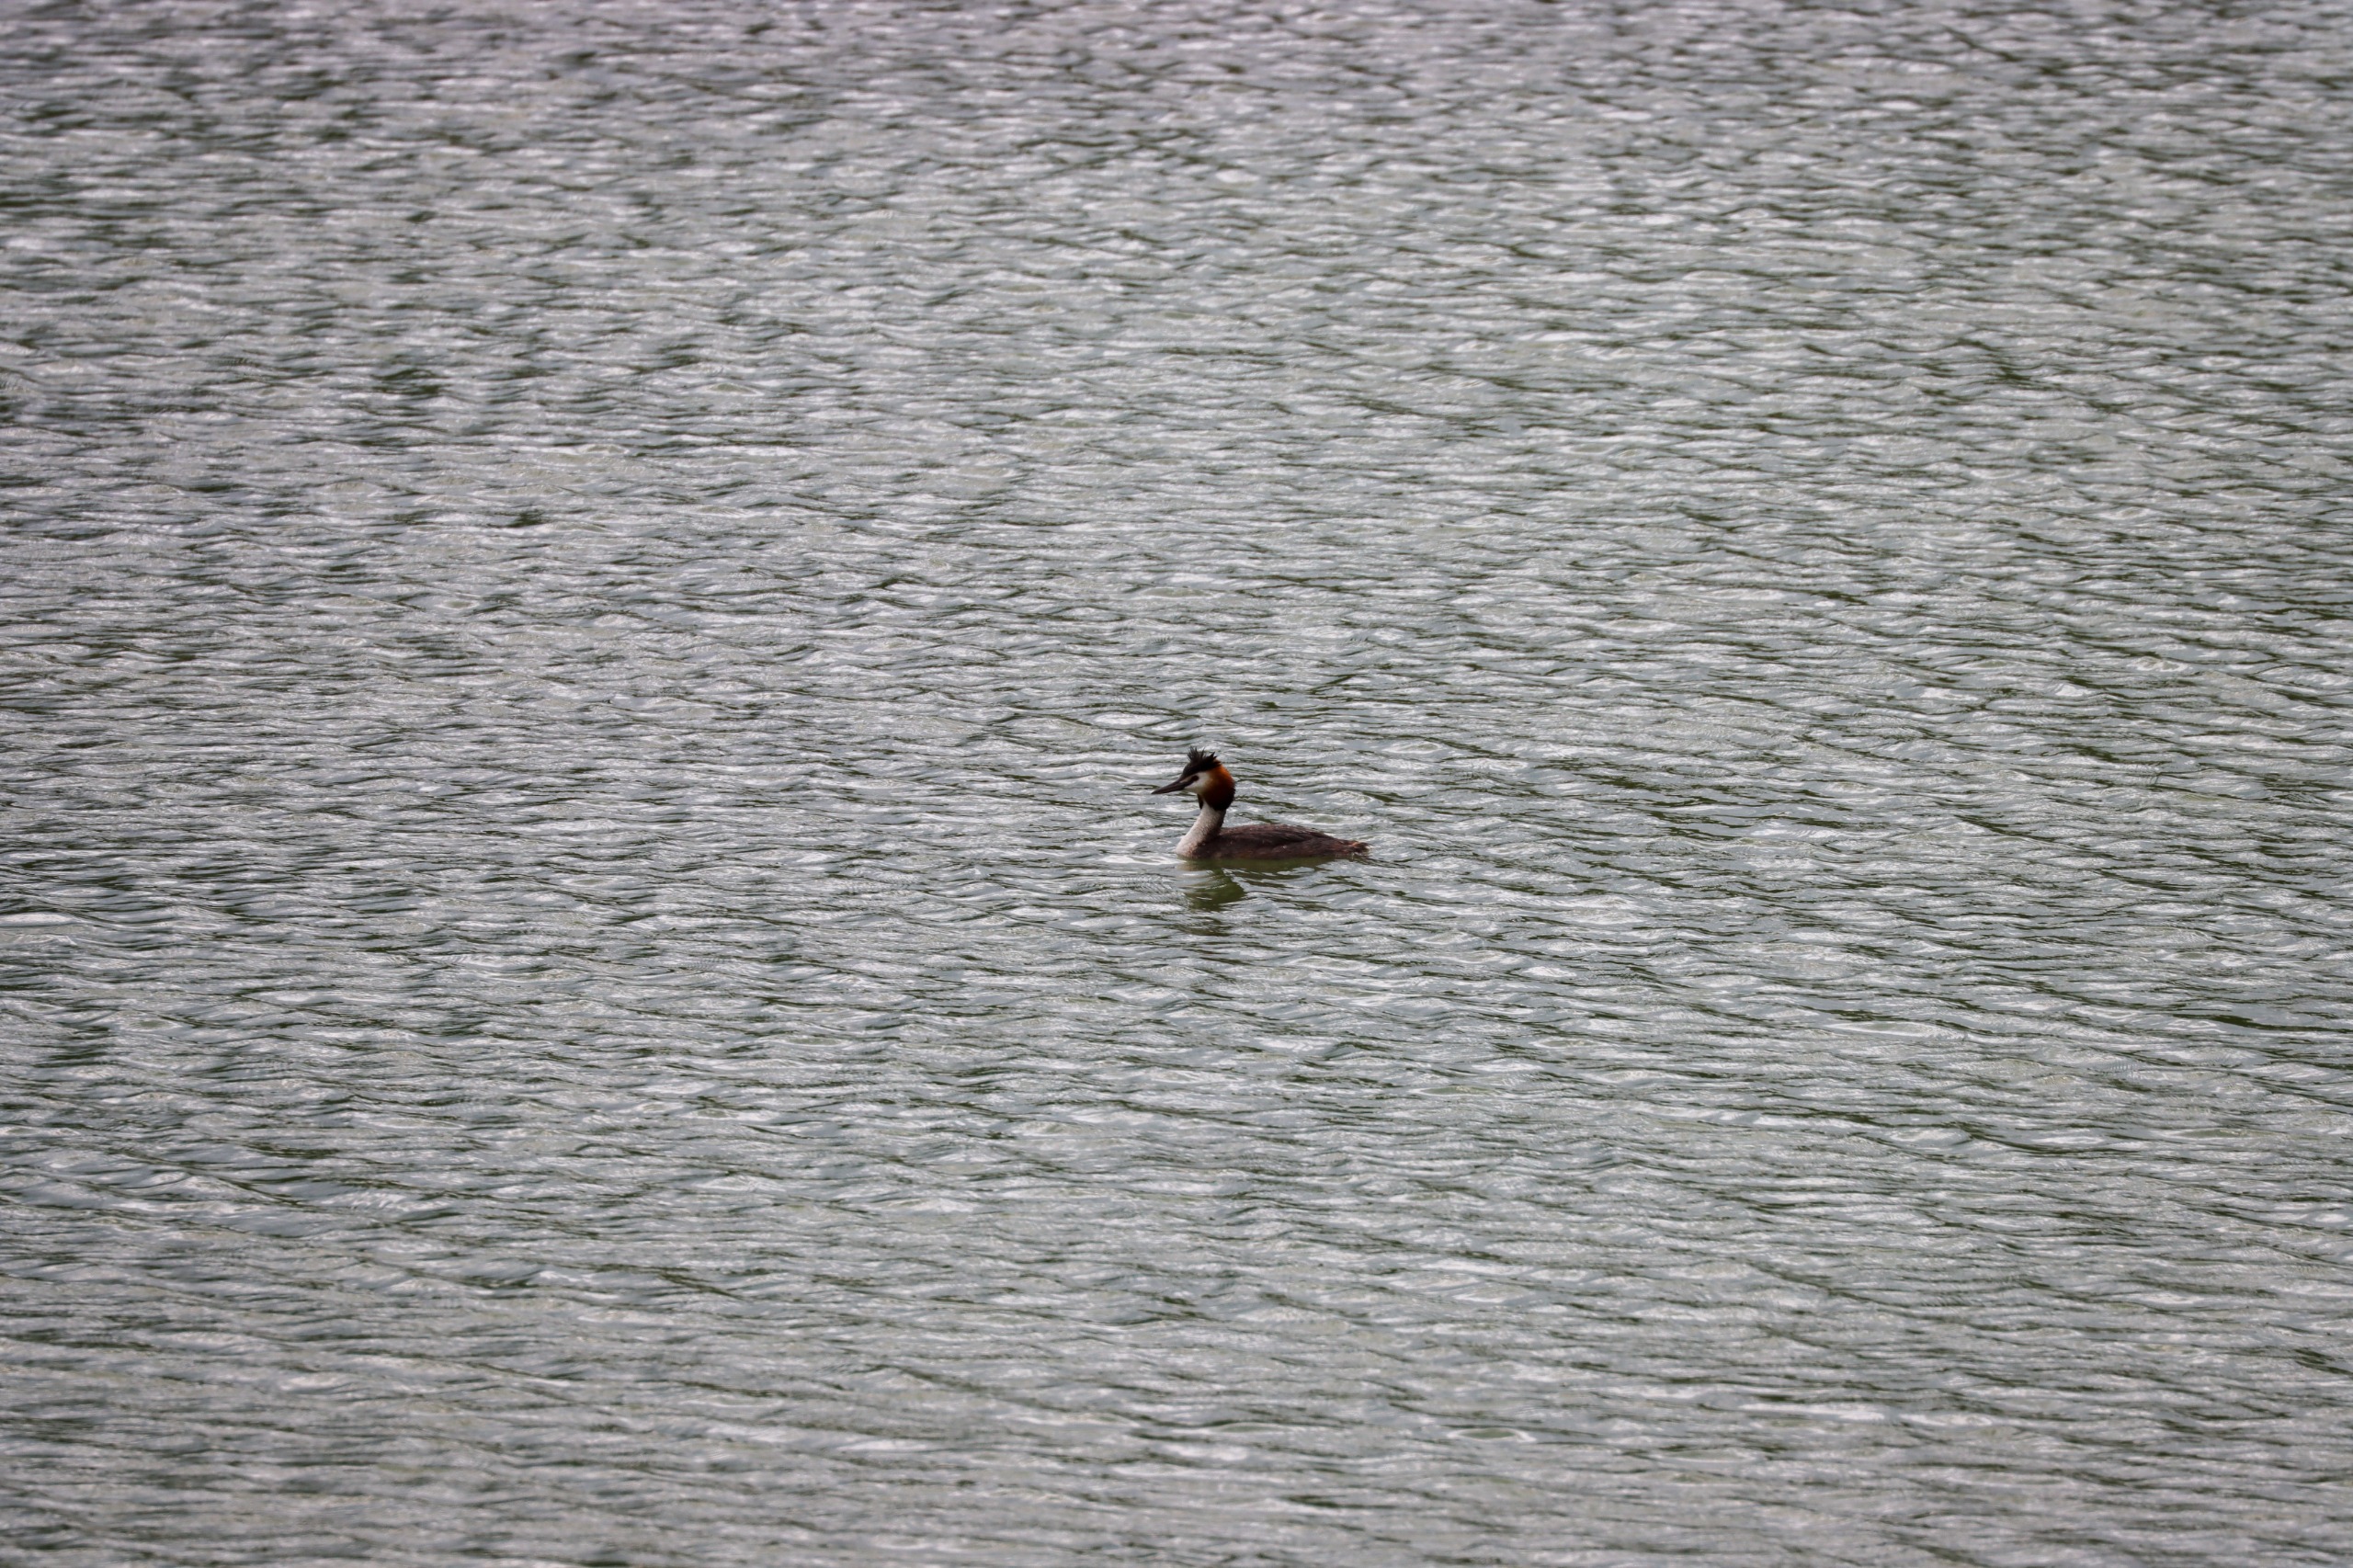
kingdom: Animalia
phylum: Chordata
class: Aves
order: Podicipediformes
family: Podicipedidae
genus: Podiceps
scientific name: Podiceps cristatus
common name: Toppet lappedykker
